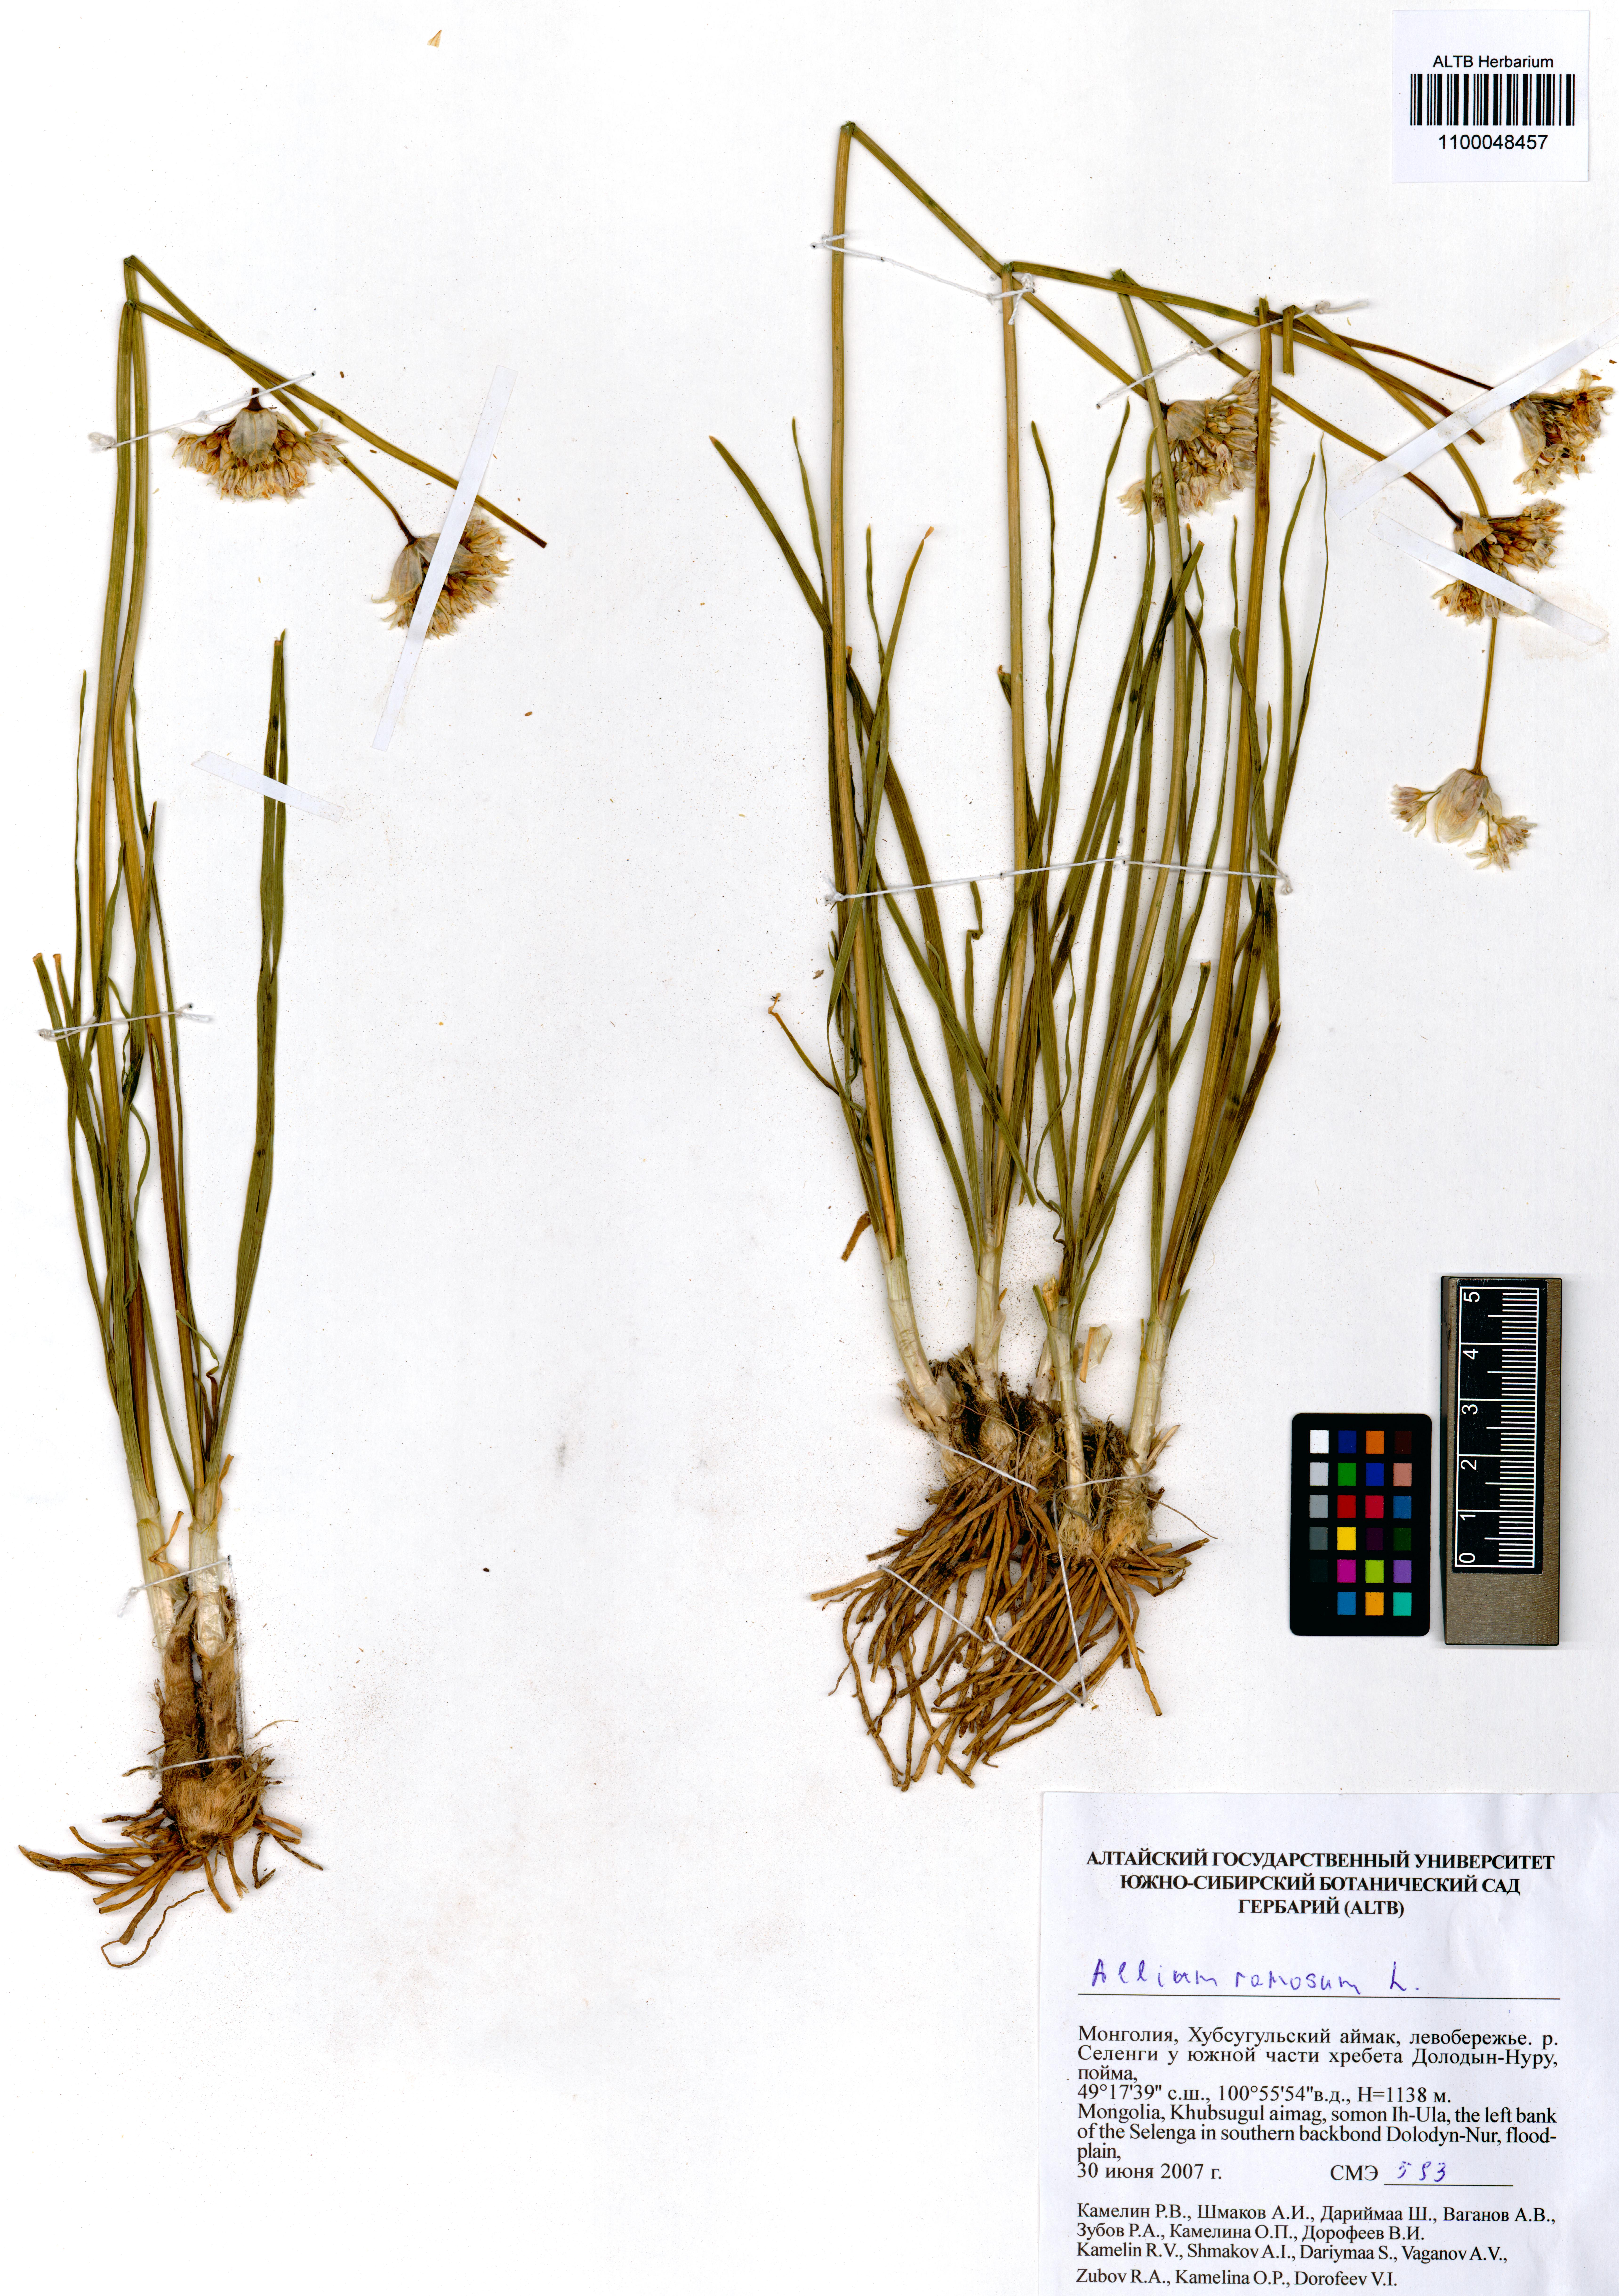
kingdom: Plantae
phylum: Tracheophyta
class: Liliopsida
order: Asparagales
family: Amaryllidaceae
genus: Allium
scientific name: Allium ramosum
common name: Fragrant garlic
